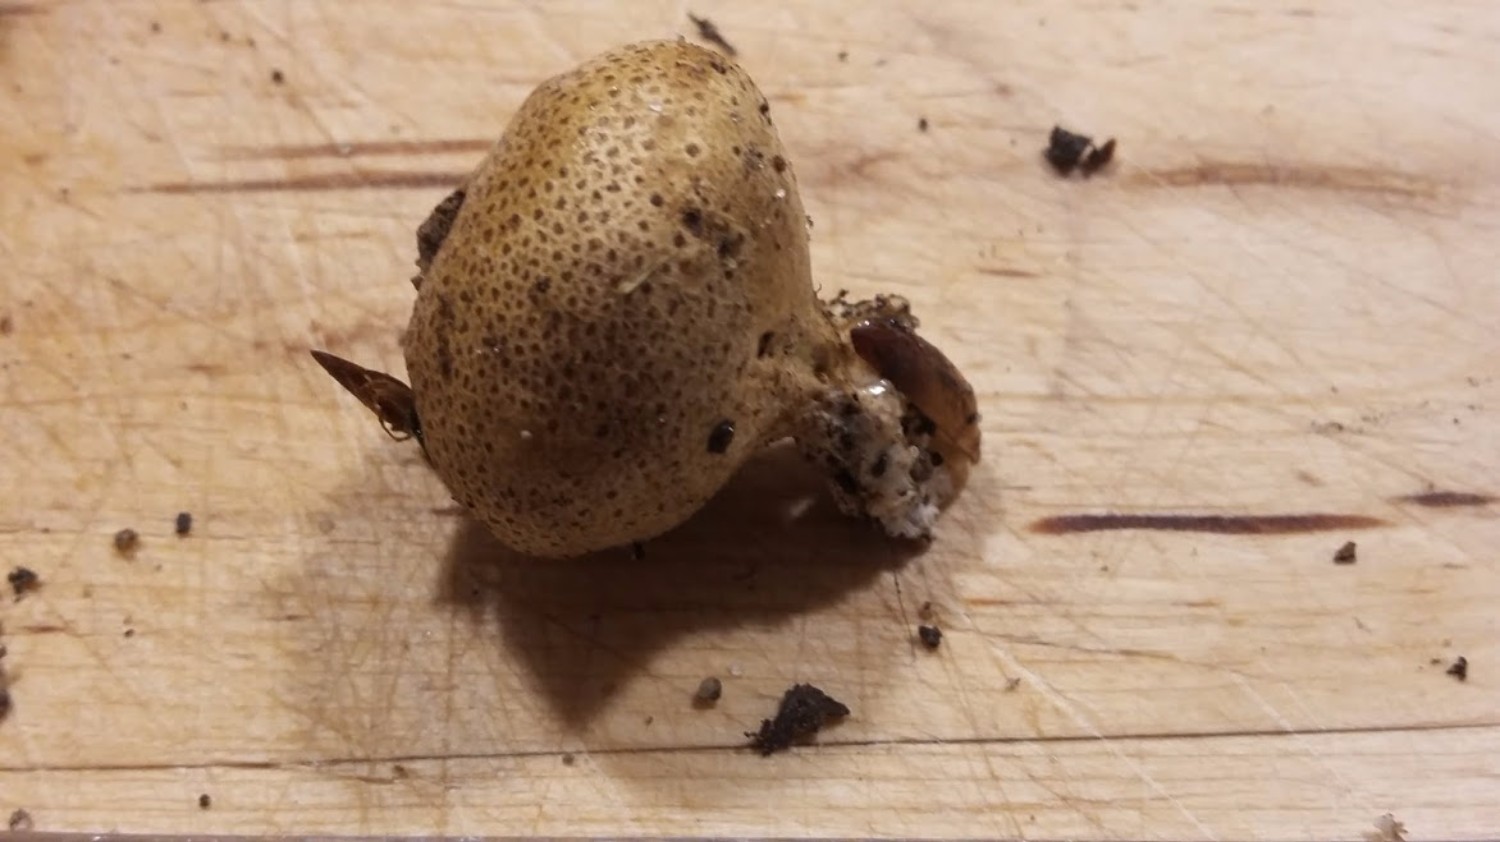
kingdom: Fungi
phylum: Basidiomycota
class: Agaricomycetes
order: Boletales
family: Sclerodermataceae
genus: Scleroderma
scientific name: Scleroderma
